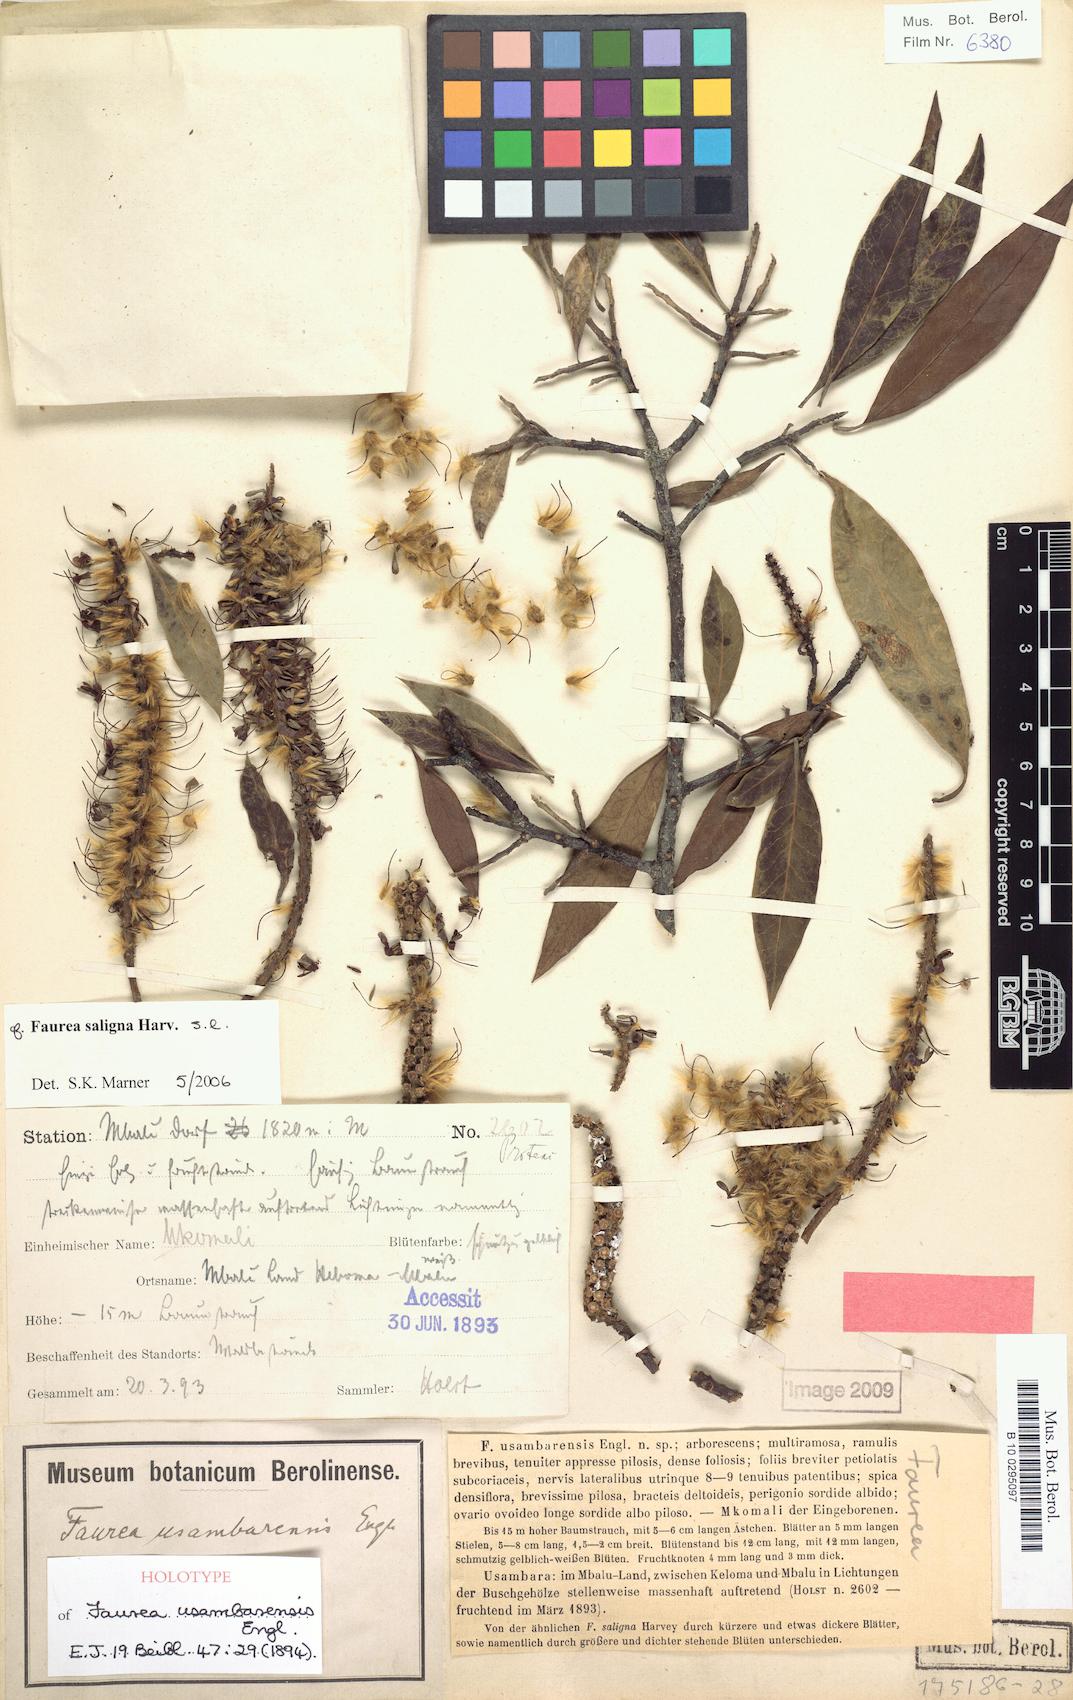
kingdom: Plantae
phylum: Tracheophyta
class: Magnoliopsida
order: Proteales
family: Proteaceae
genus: Faurea
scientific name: Faurea saligna
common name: African bean
